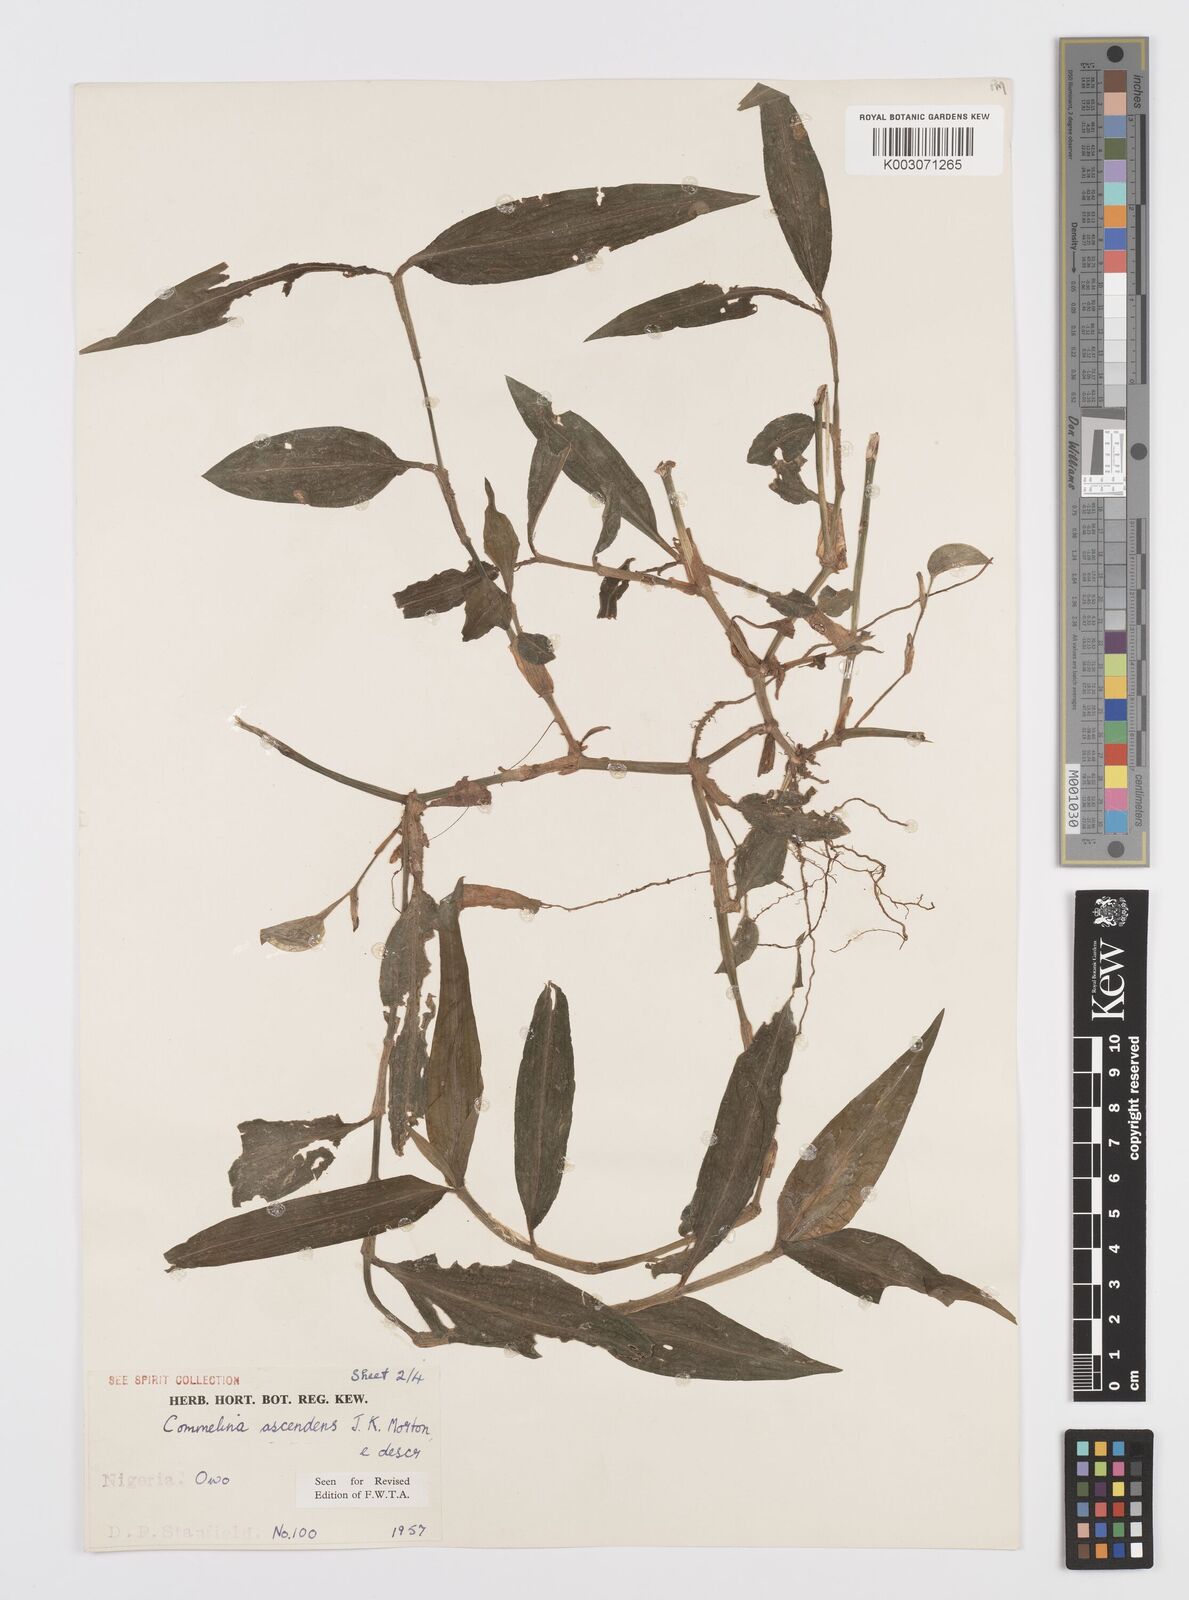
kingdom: Plantae
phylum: Tracheophyta
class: Liliopsida
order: Commelinales
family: Commelinaceae
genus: Commelina
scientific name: Commelina ascendens
